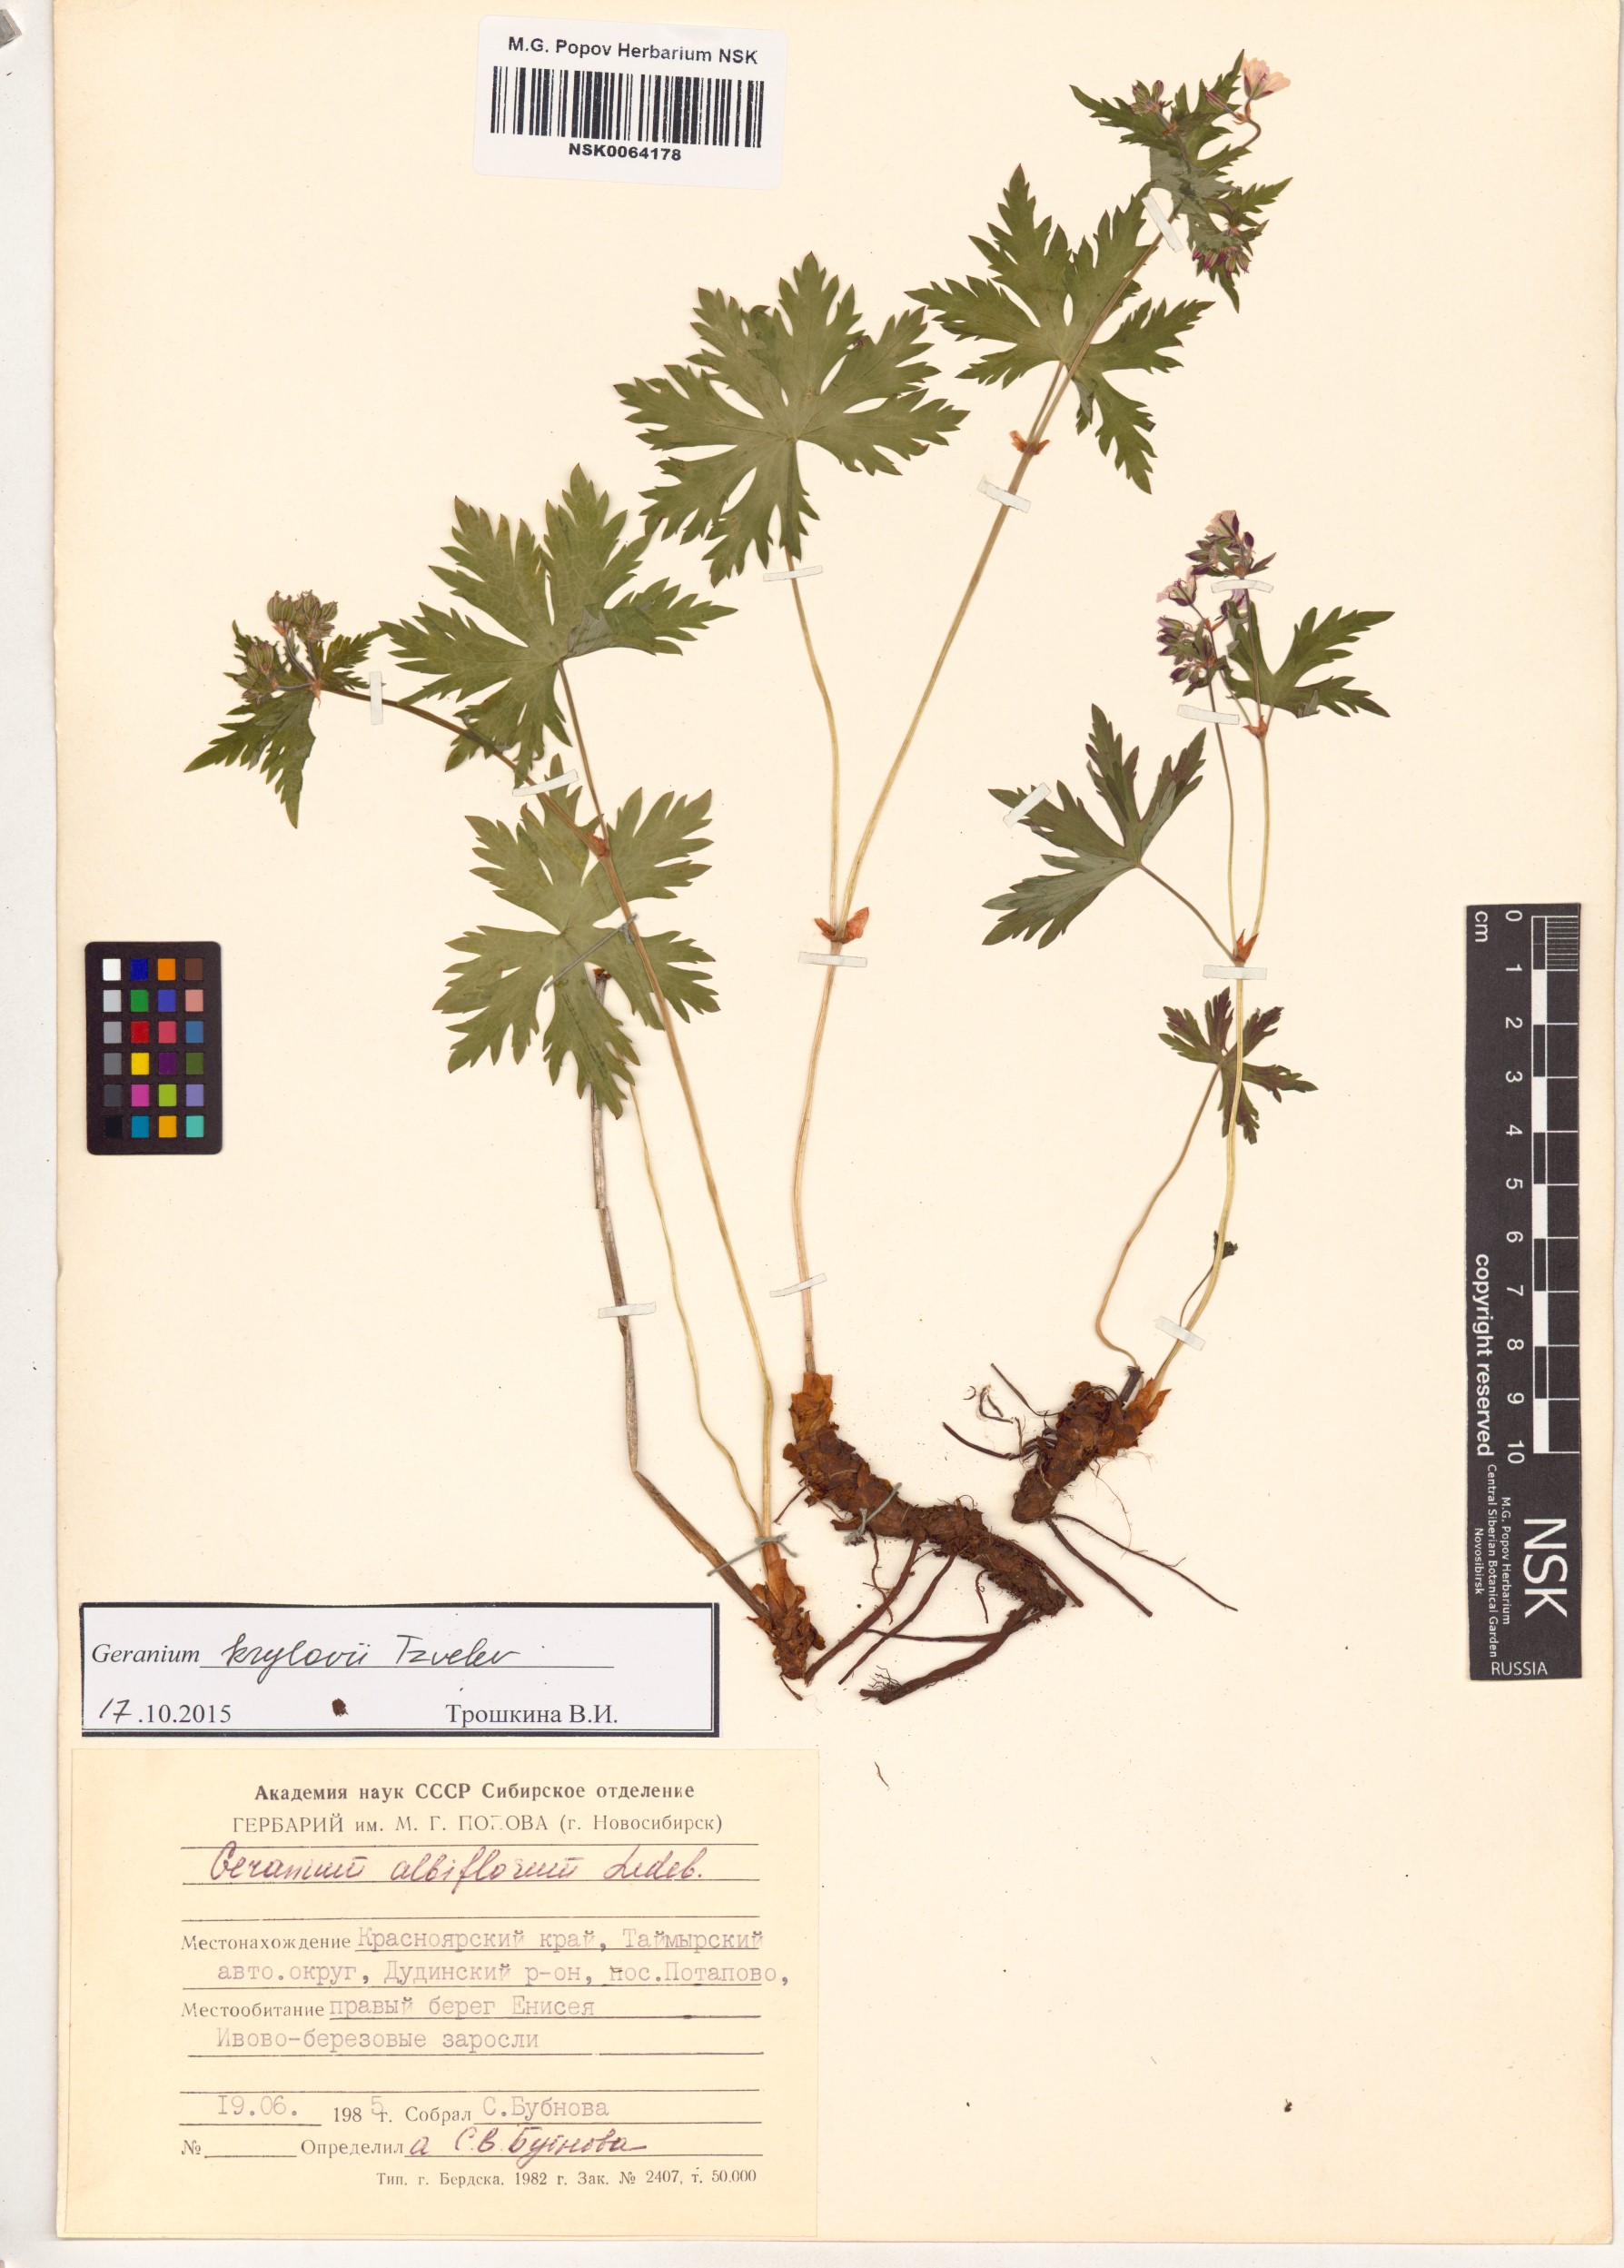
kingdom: Plantae
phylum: Tracheophyta
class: Magnoliopsida
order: Geraniales
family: Geraniaceae
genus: Geranium
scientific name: Geranium sylvaticum
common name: Wood crane's-bill
